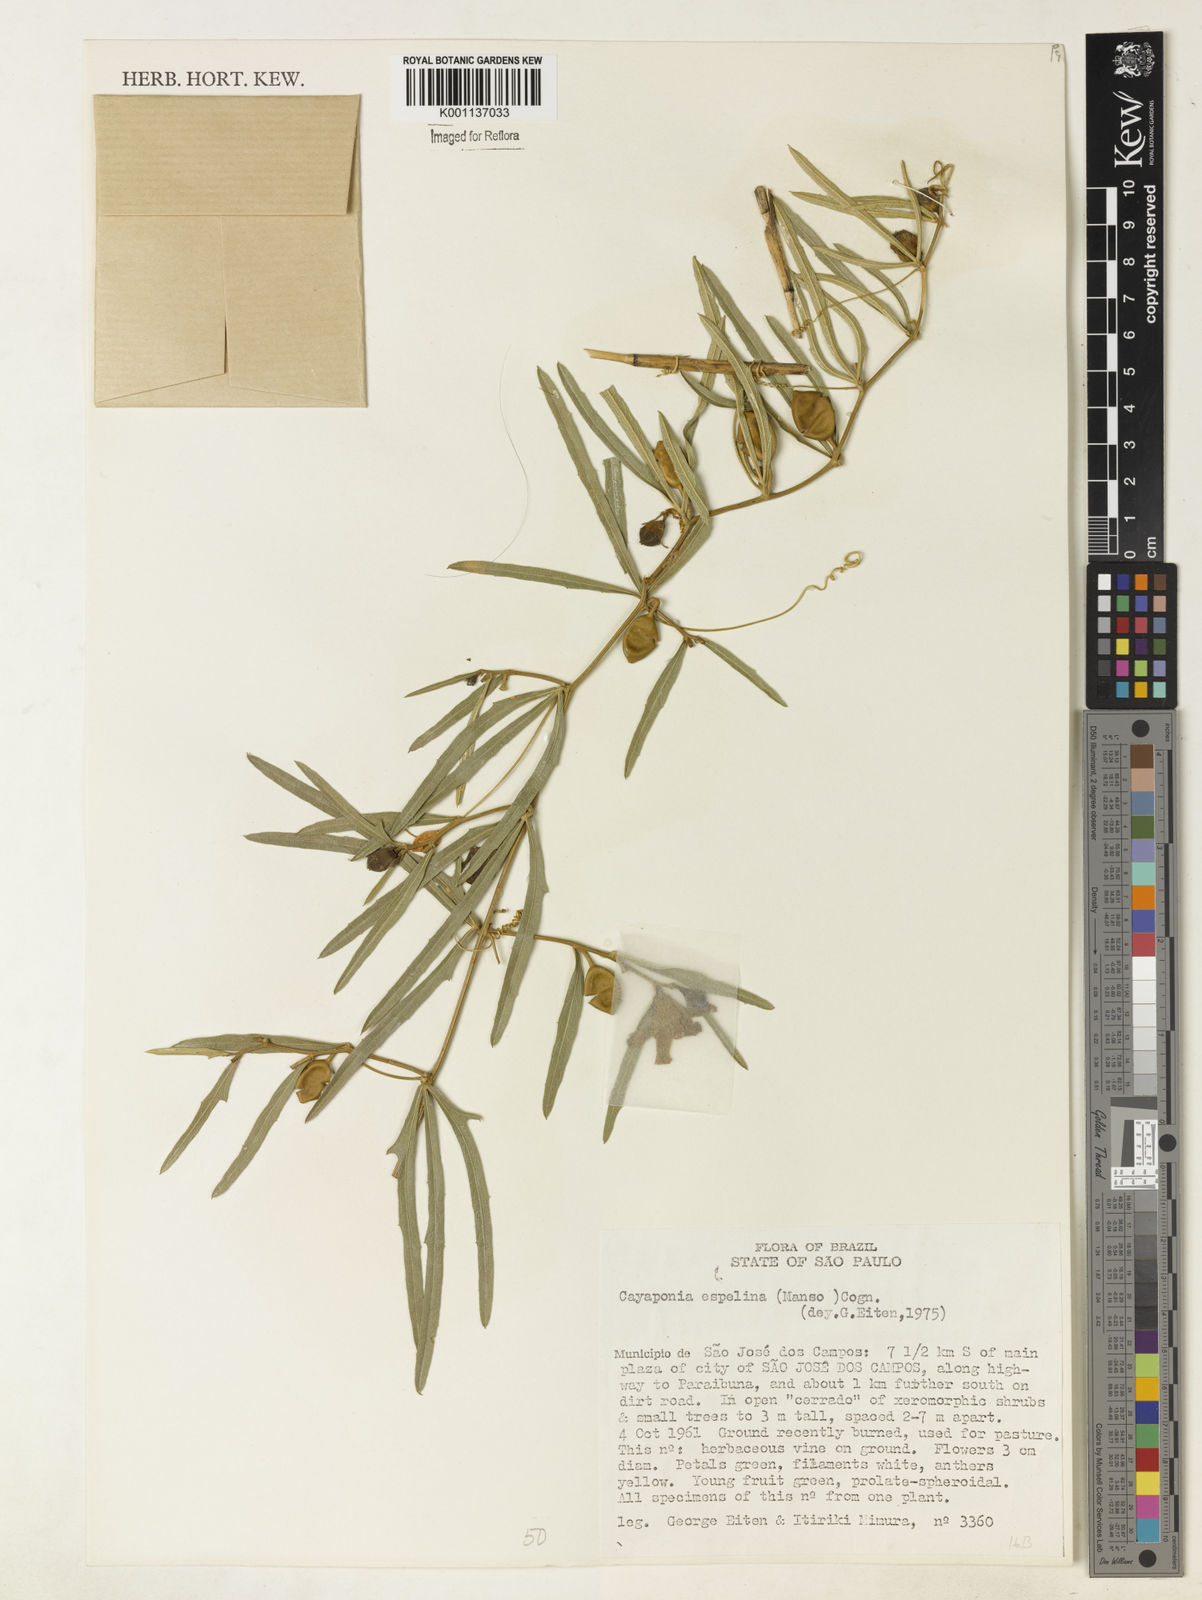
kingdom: Plantae
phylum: Tracheophyta
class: Magnoliopsida
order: Cucurbitales
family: Cucurbitaceae
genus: Cayaponia
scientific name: Cayaponia espelina
